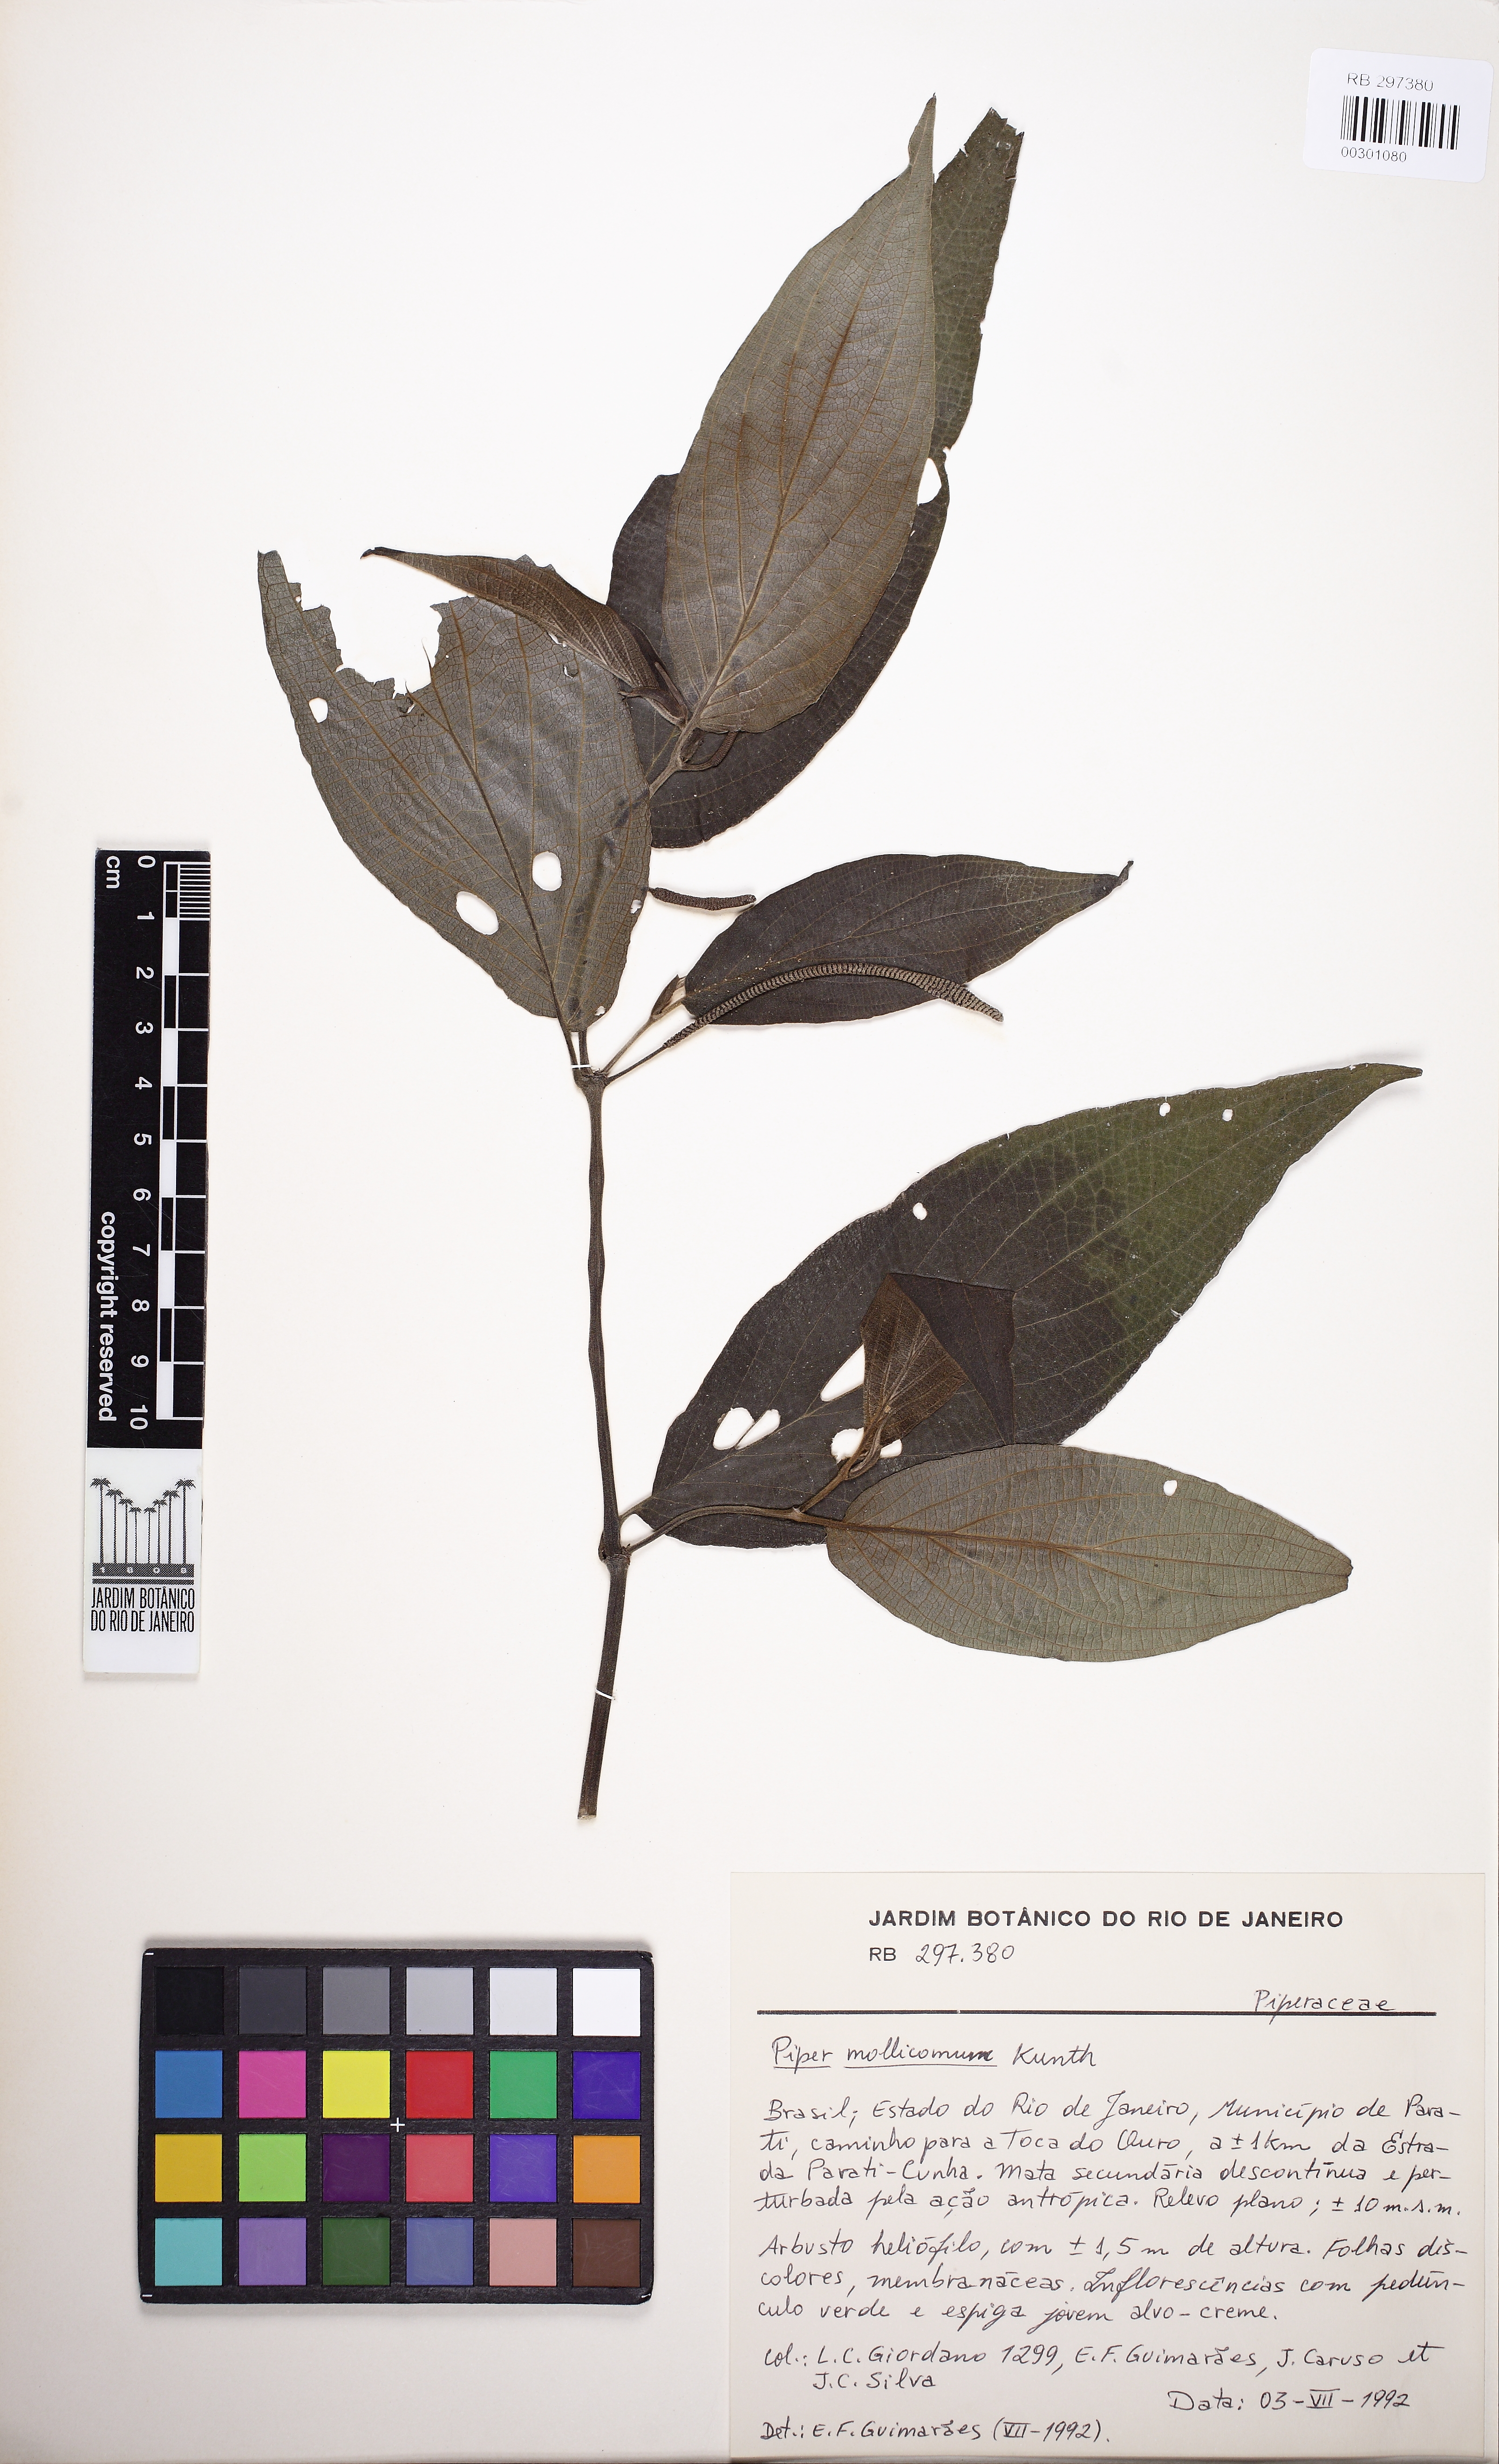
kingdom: Plantae
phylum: Tracheophyta
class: Magnoliopsida
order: Piperales
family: Piperaceae
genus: Piper
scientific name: Piper mollicomum
